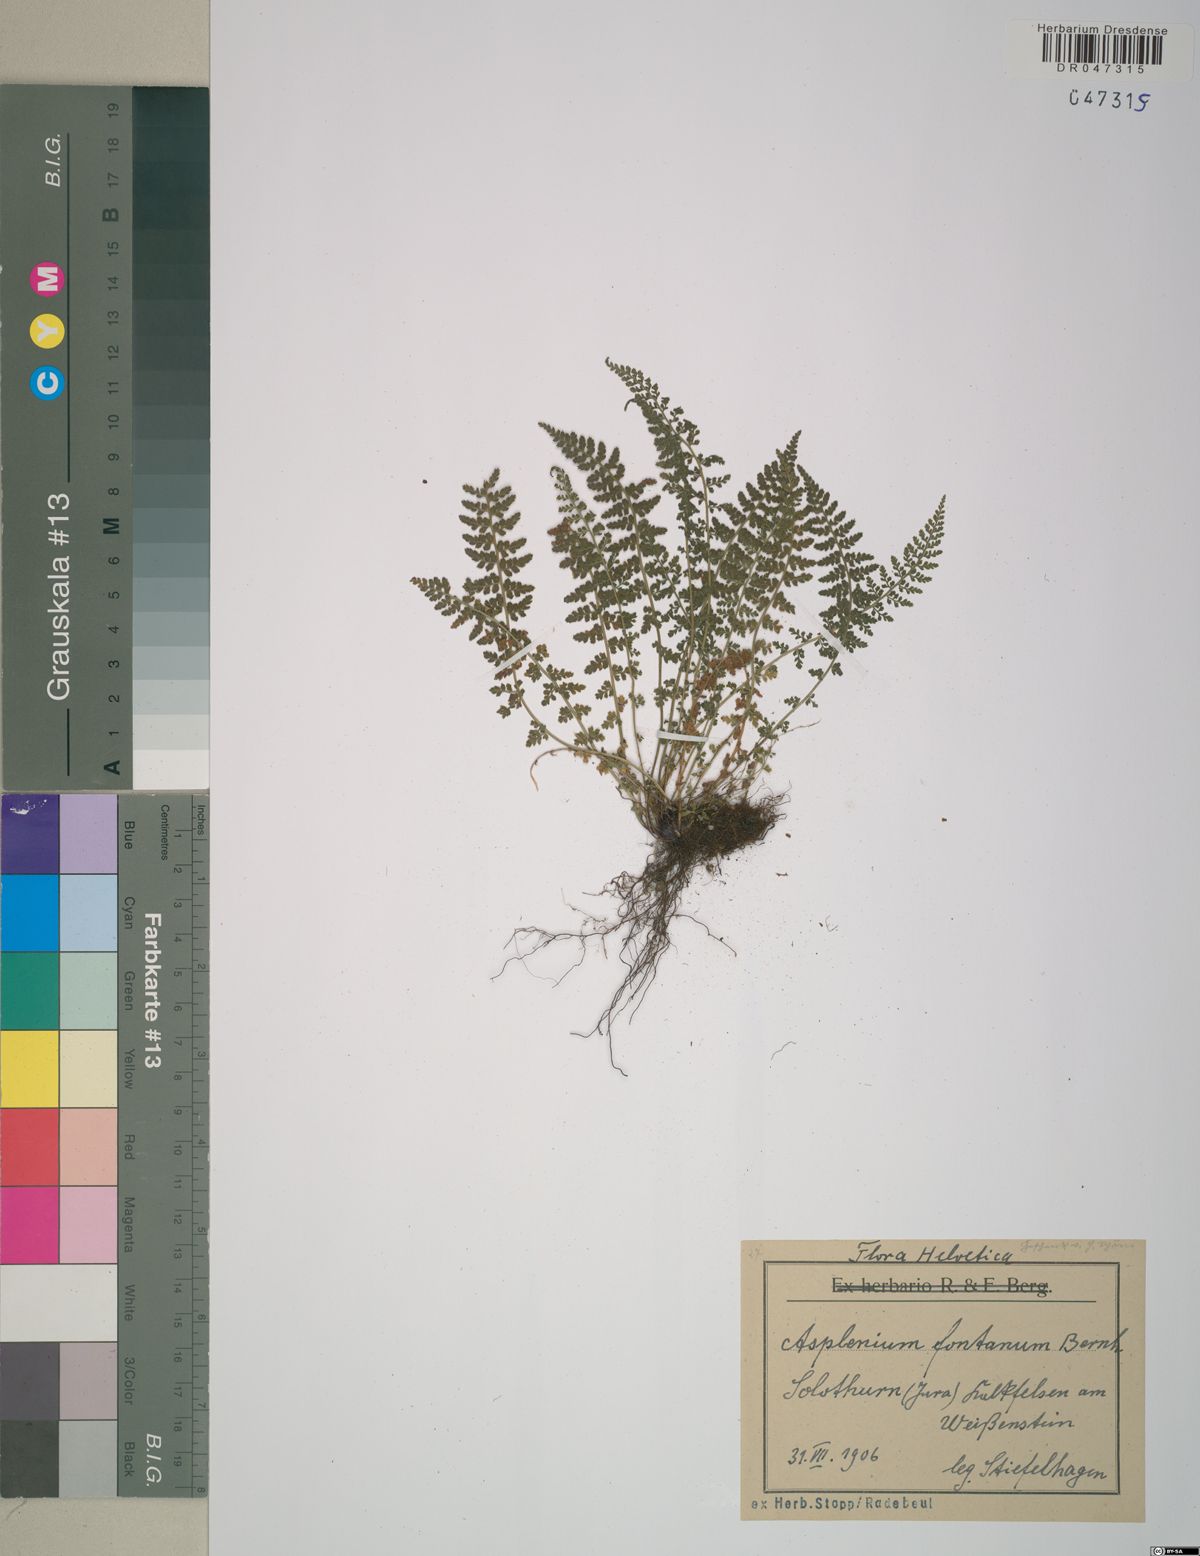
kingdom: Plantae
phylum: Tracheophyta
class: Polypodiopsida
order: Polypodiales
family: Aspleniaceae
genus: Asplenium
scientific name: Asplenium fontanum
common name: Fountain spleenwort
